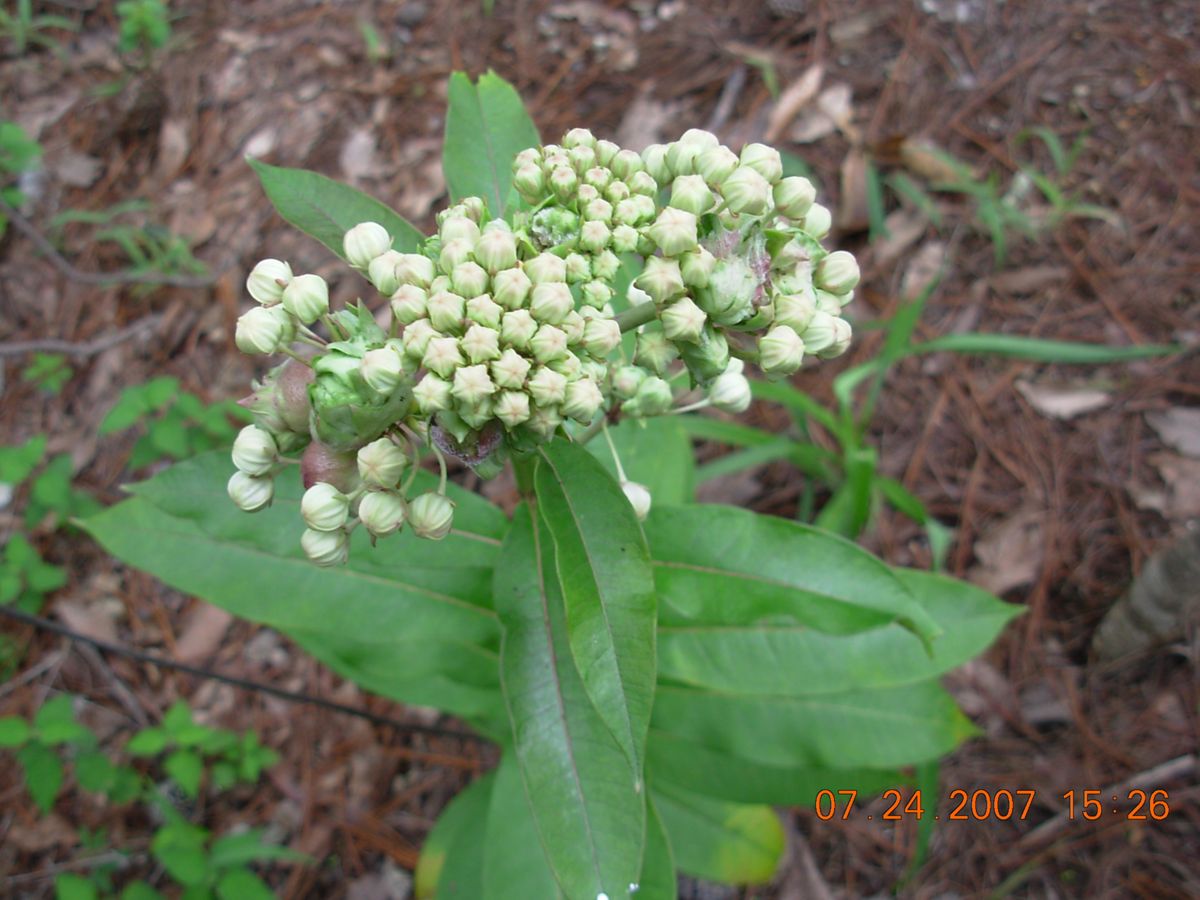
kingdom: Plantae
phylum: Tracheophyta
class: Magnoliopsida
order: Gentianales
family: Apocynaceae
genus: Asclepias
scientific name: Asclepias similis
